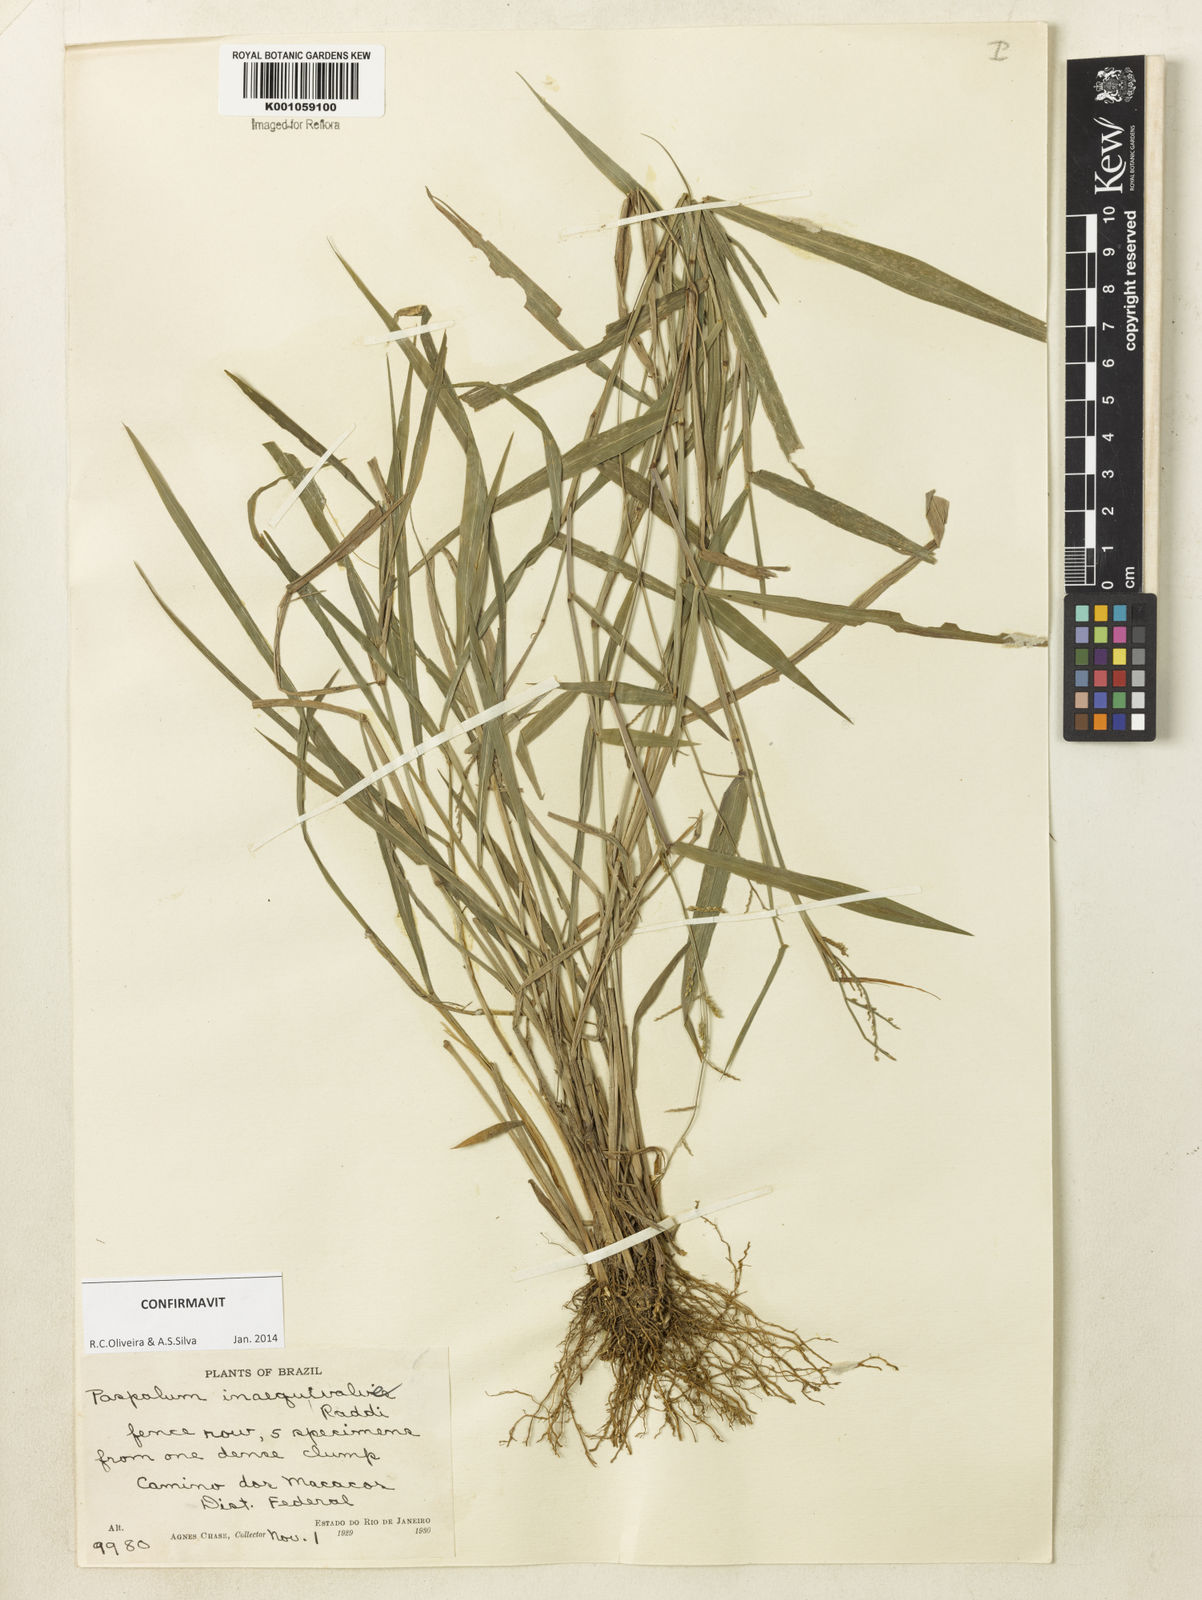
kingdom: Plantae
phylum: Tracheophyta
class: Liliopsida
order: Poales
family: Poaceae
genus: Paspalum
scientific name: Paspalum inaequivalve
